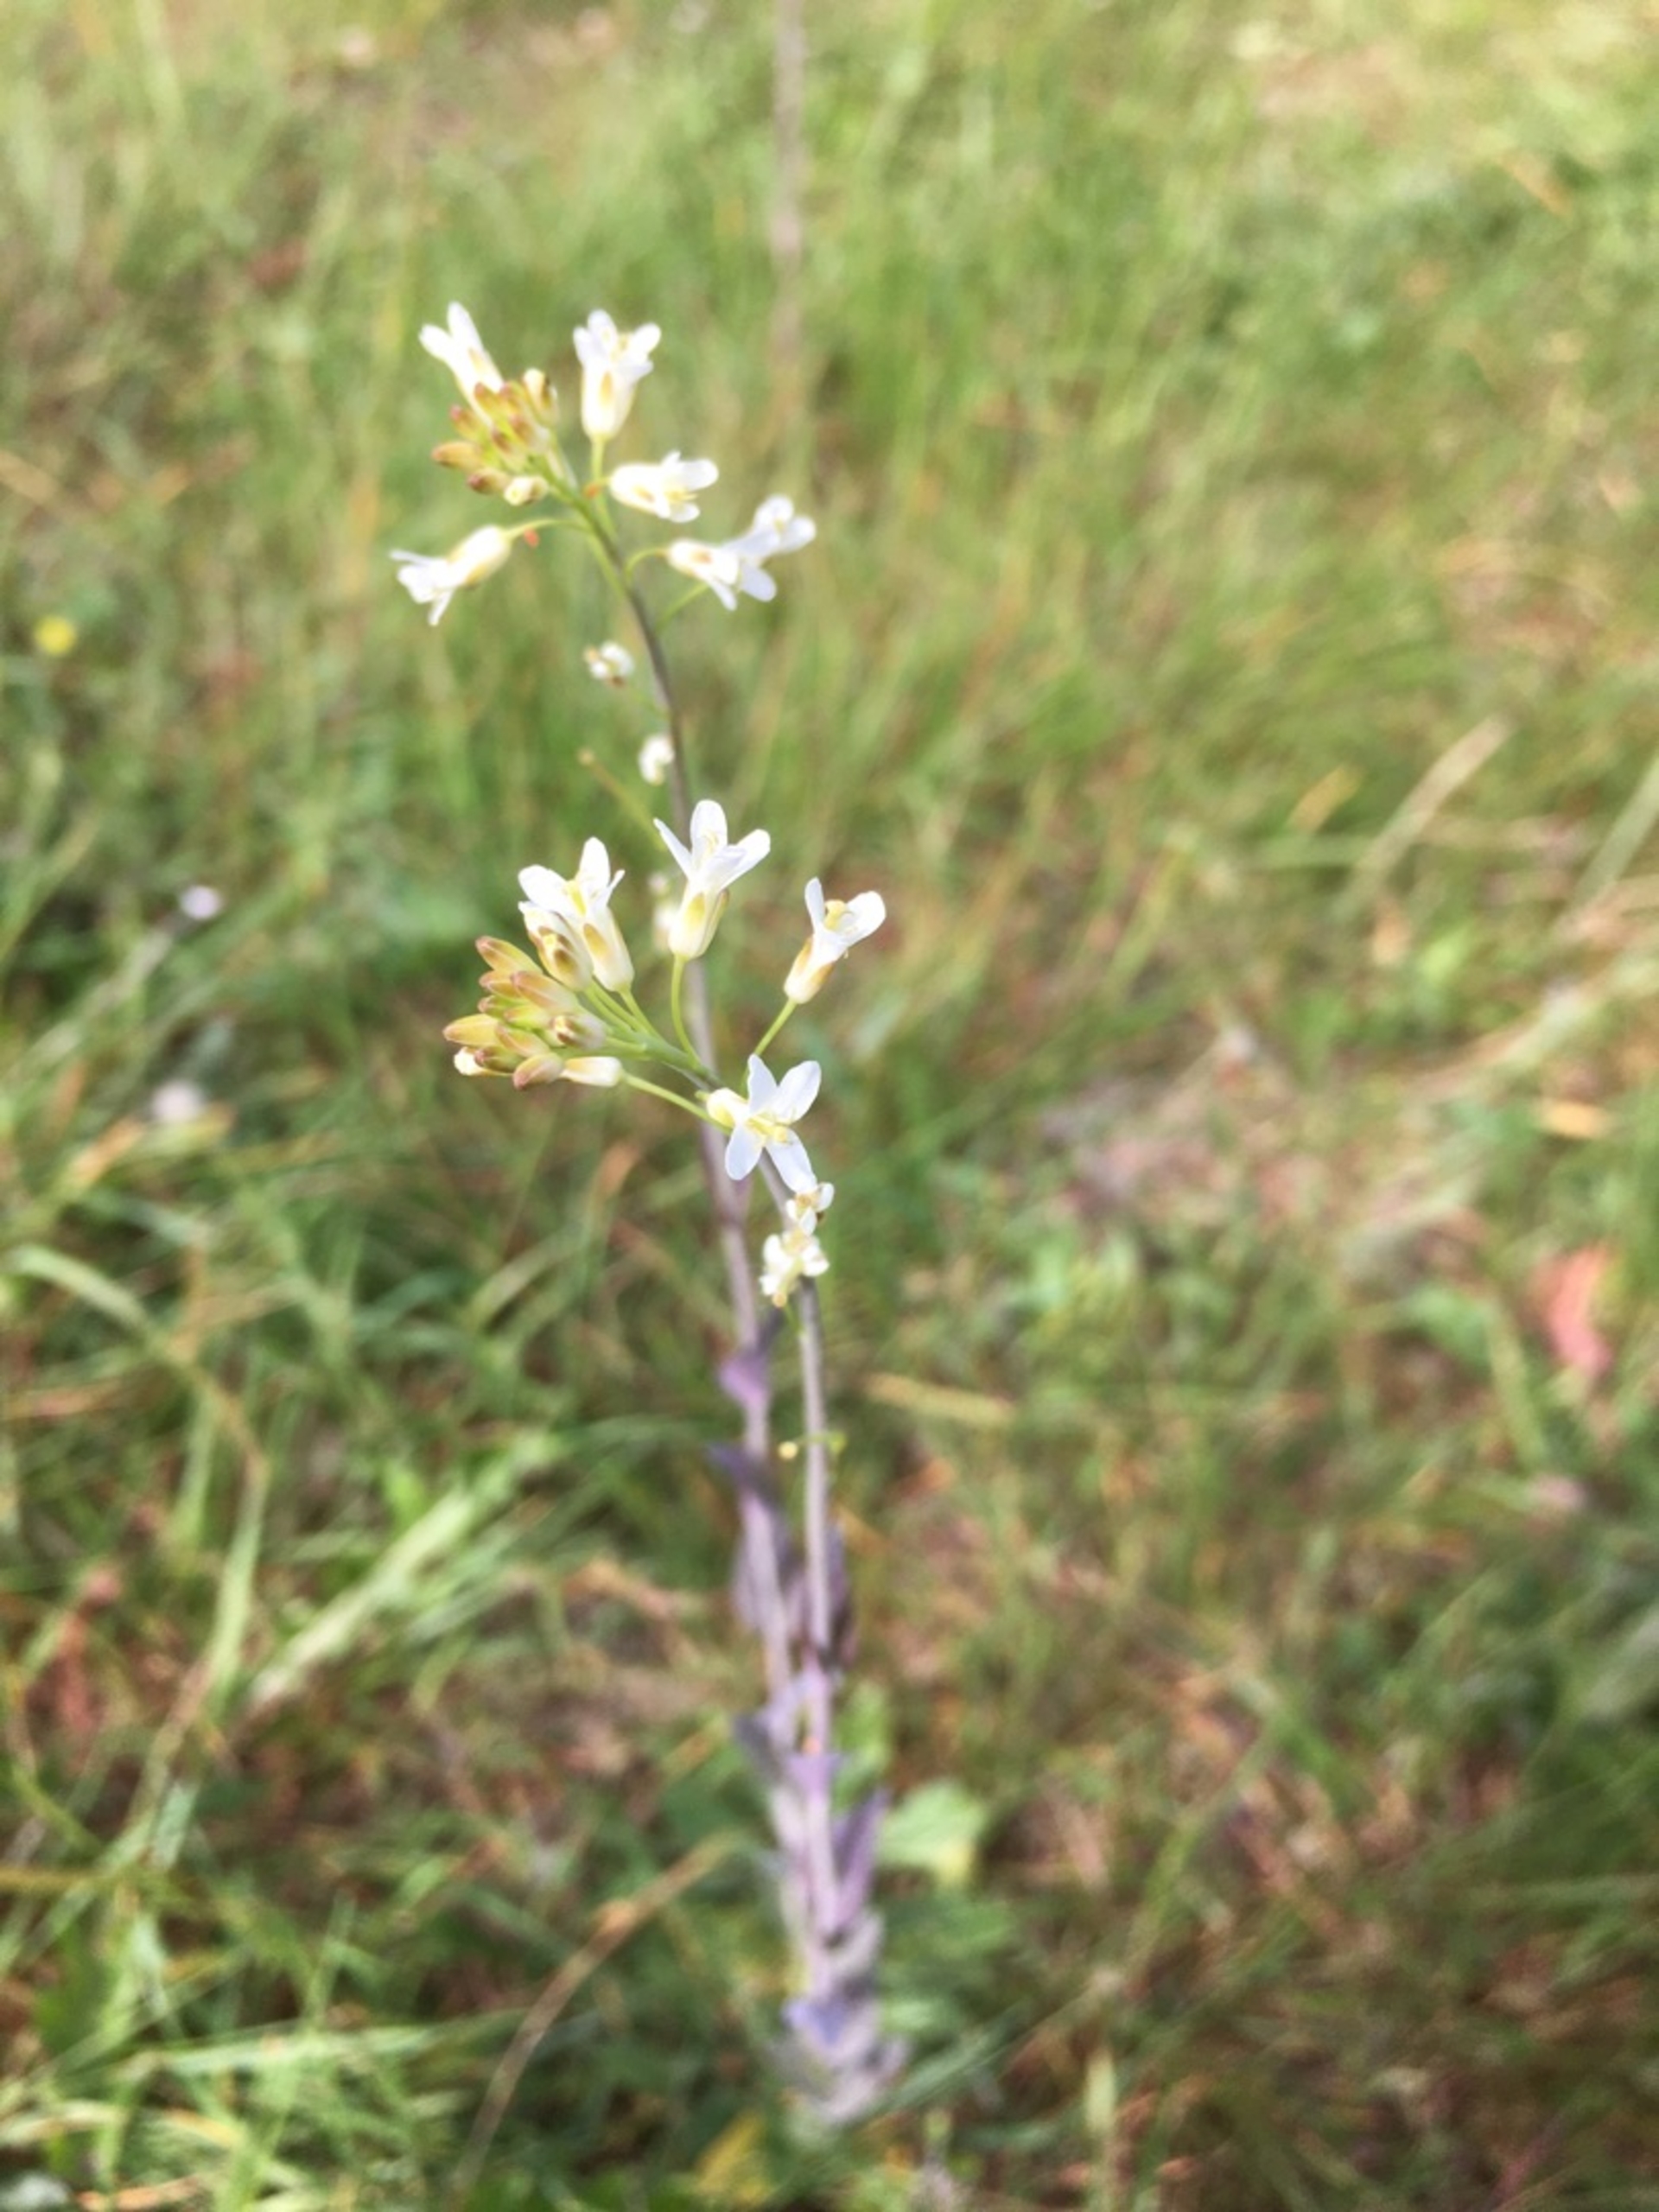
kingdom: Plantae
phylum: Tracheophyta
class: Magnoliopsida
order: Brassicales
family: Brassicaceae
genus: Turritis
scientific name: Turritis glabra
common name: Tårnurt
